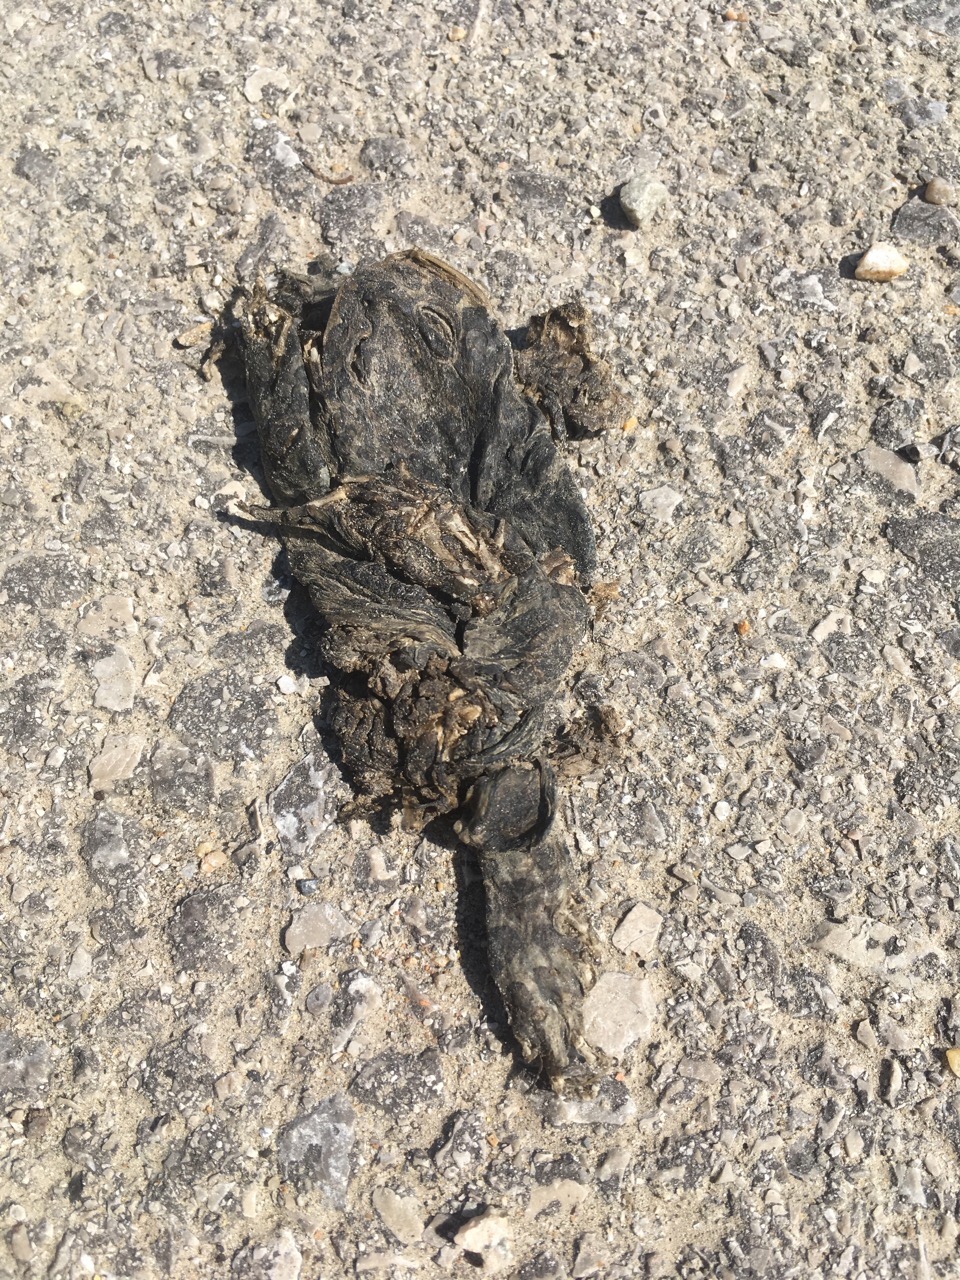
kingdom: Animalia
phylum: Chordata
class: Amphibia
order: Anura
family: Bufonidae
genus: Bufotes
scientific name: Bufotes viridis
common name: European green toad
